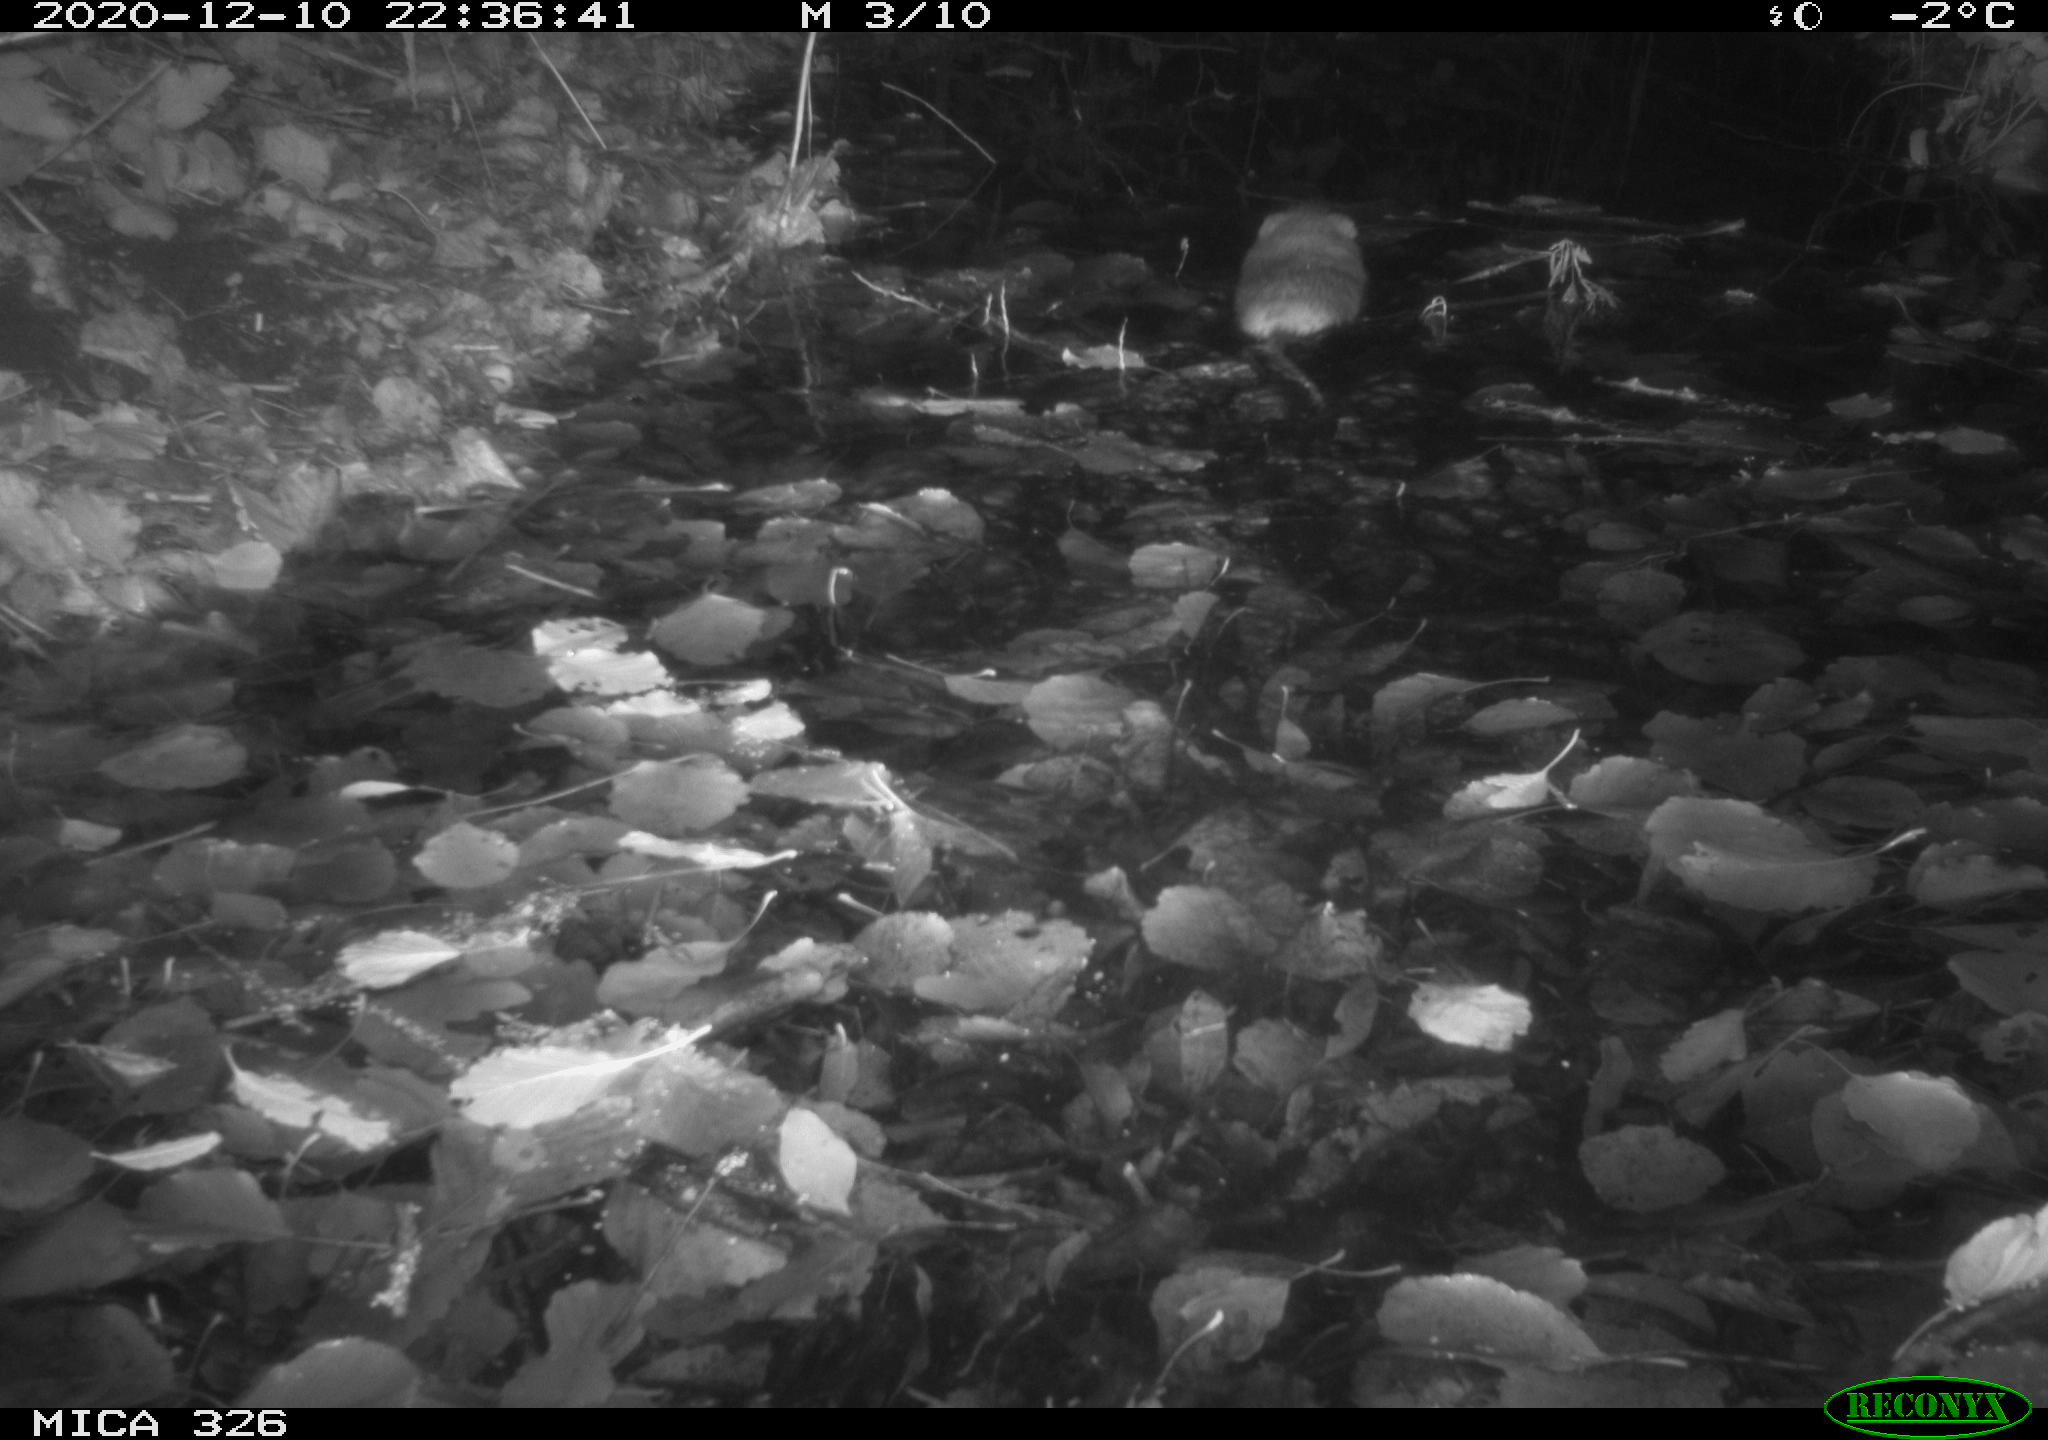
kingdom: Animalia
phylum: Chordata
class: Mammalia
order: Rodentia
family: Cricetidae
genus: Ondatra
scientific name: Ondatra zibethicus
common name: Muskrat
